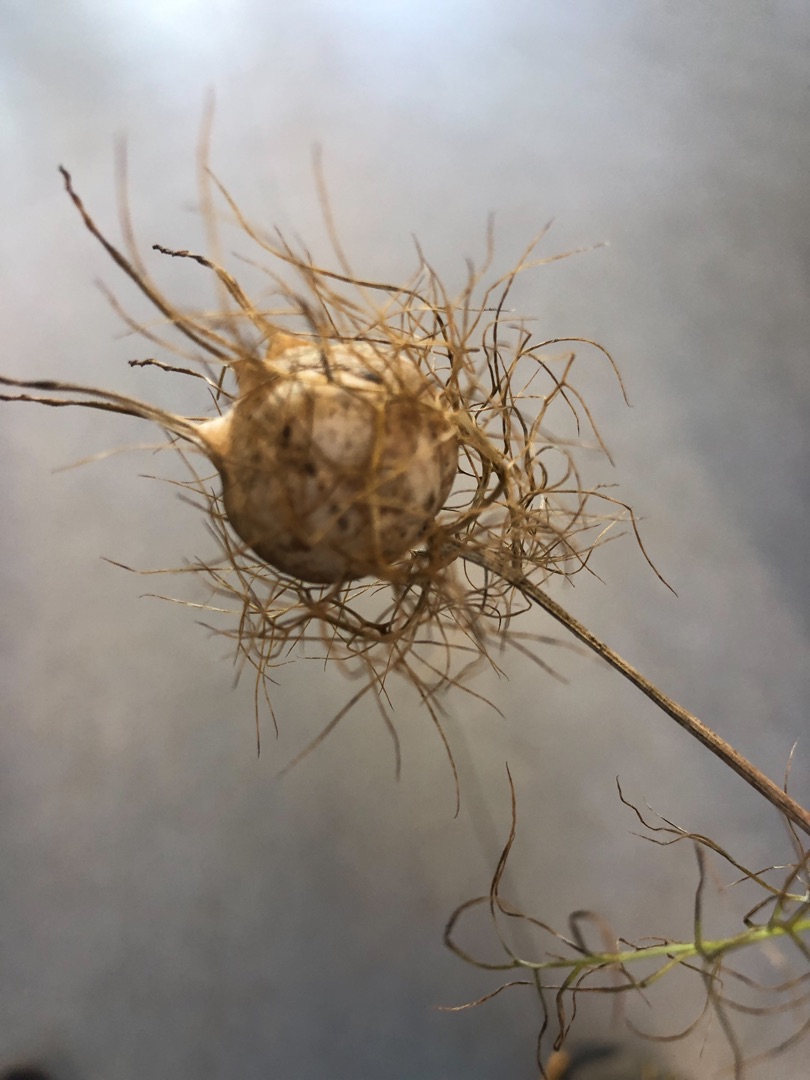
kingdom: Plantae
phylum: Tracheophyta
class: Magnoliopsida
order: Ranunculales
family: Ranunculaceae
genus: Nigella
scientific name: Nigella damascena
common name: Jomfru i det grønne
